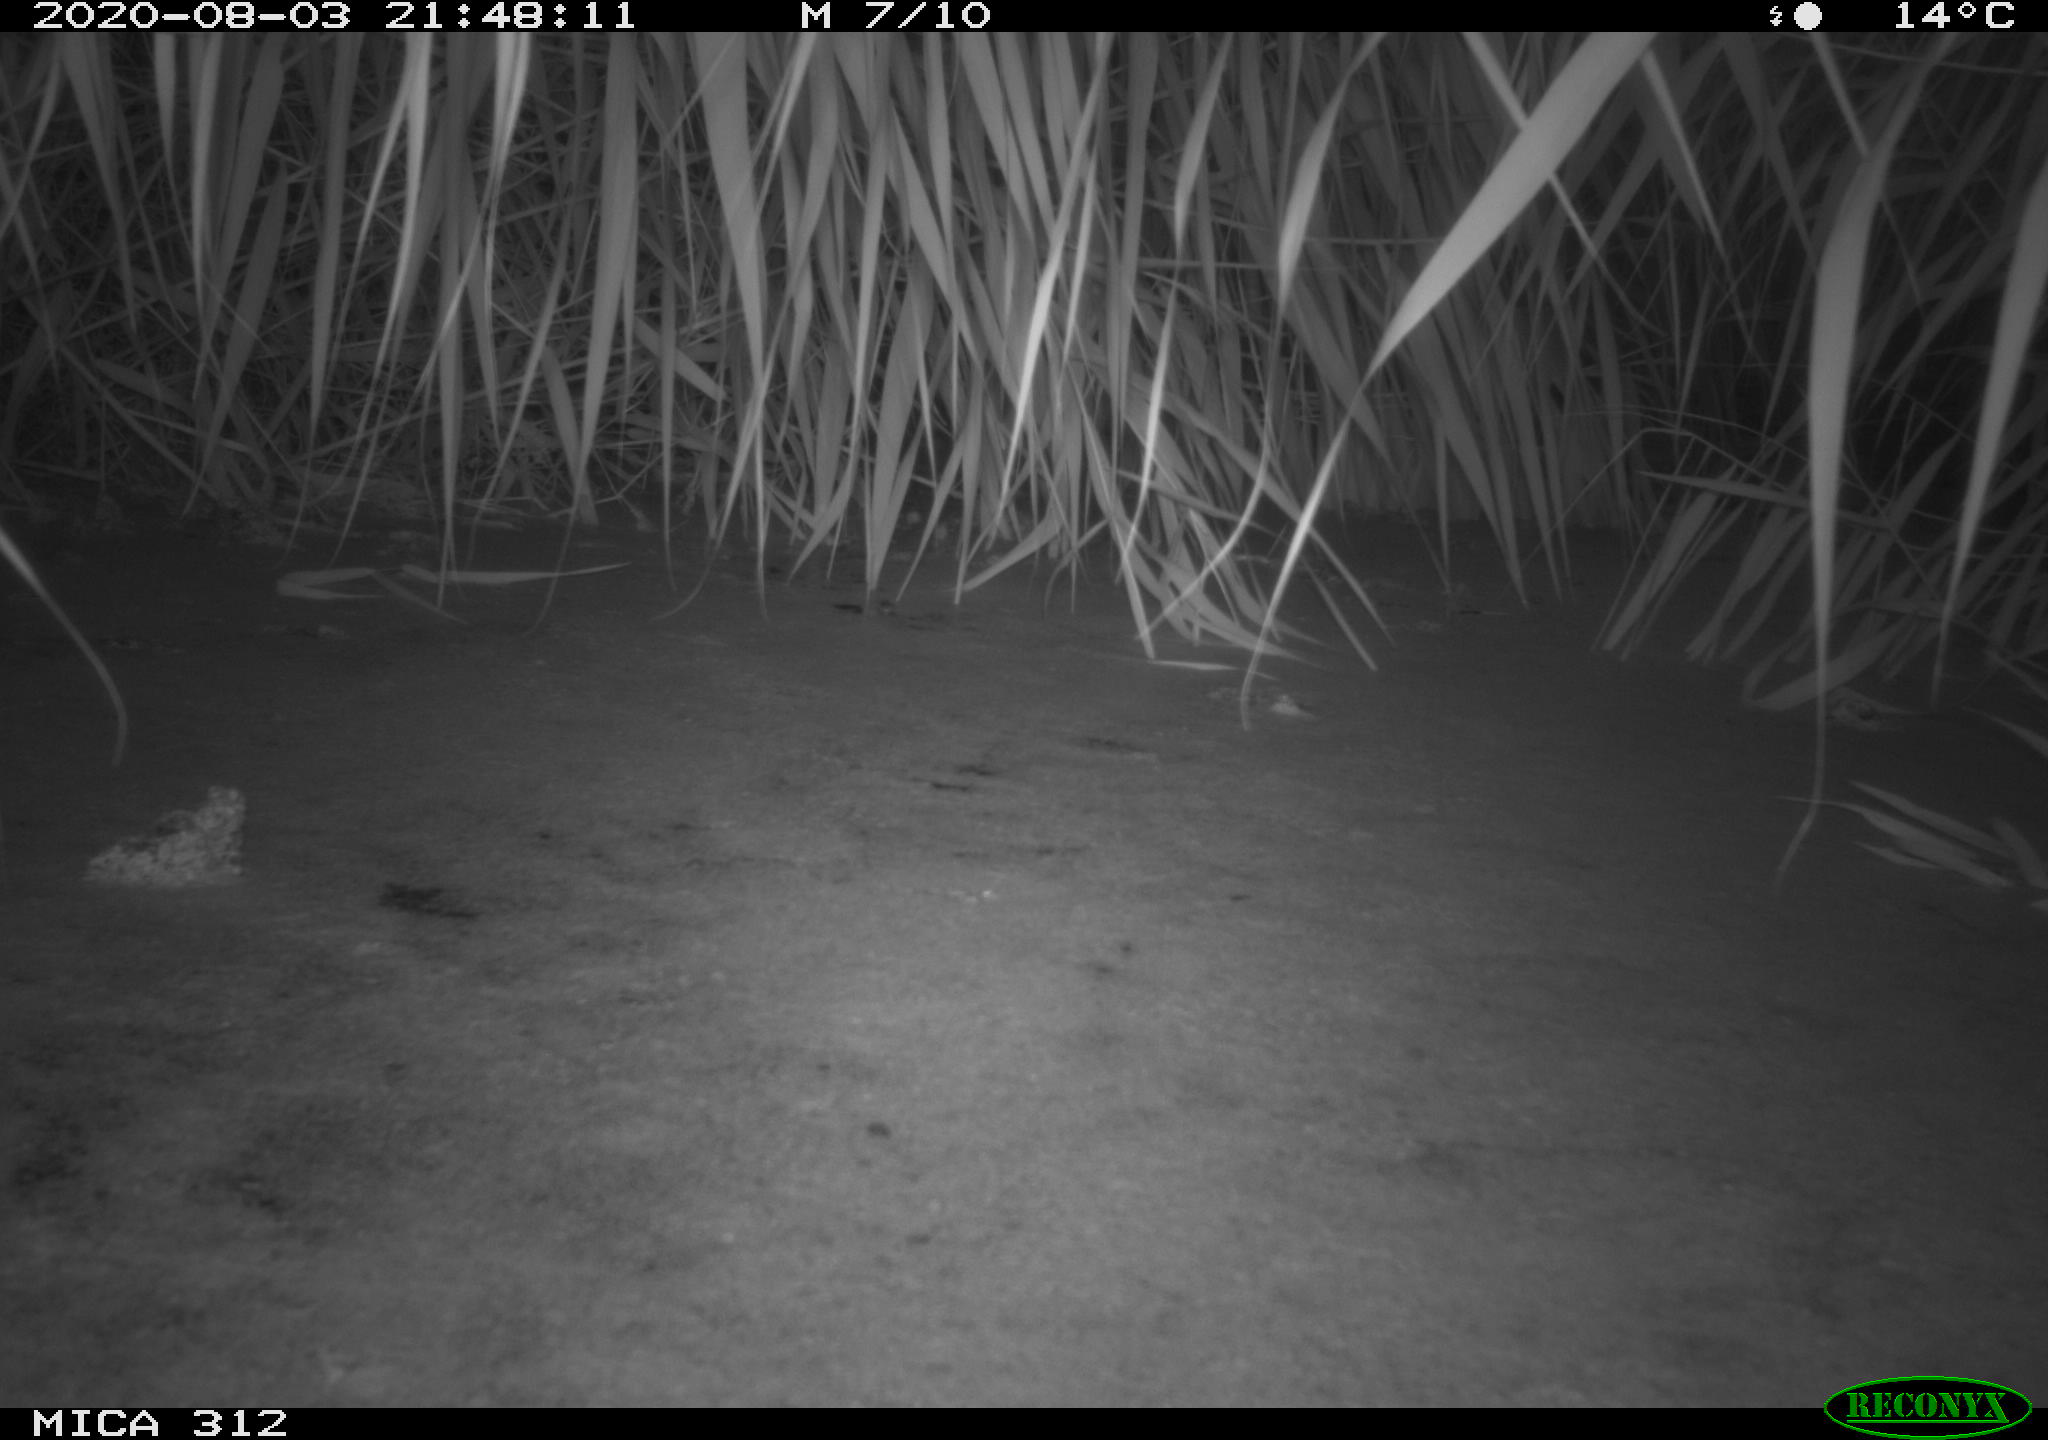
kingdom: Animalia
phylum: Chordata
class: Mammalia
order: Rodentia
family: Muridae
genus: Rattus
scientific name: Rattus norvegicus
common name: Brown rat
